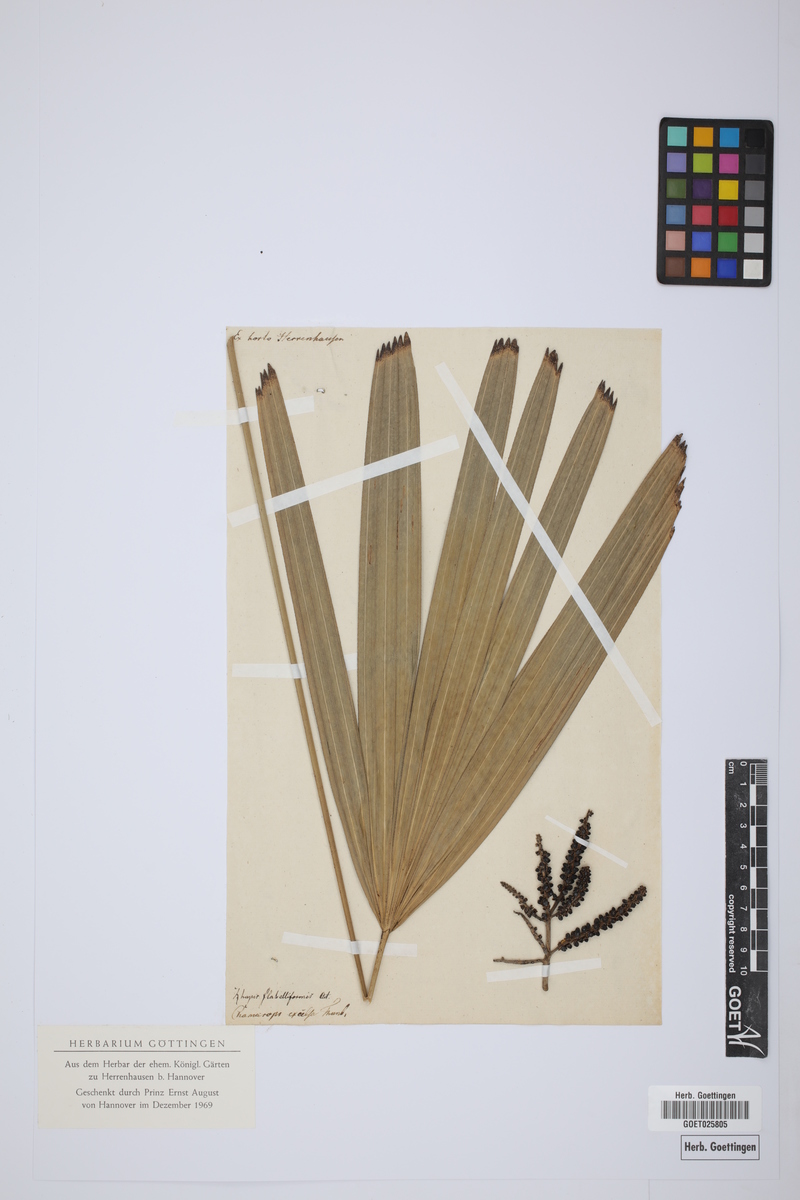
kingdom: Plantae
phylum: Tracheophyta
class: Liliopsida
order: Arecales
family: Arecaceae
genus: Rhapis
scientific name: Rhapis excelsa
